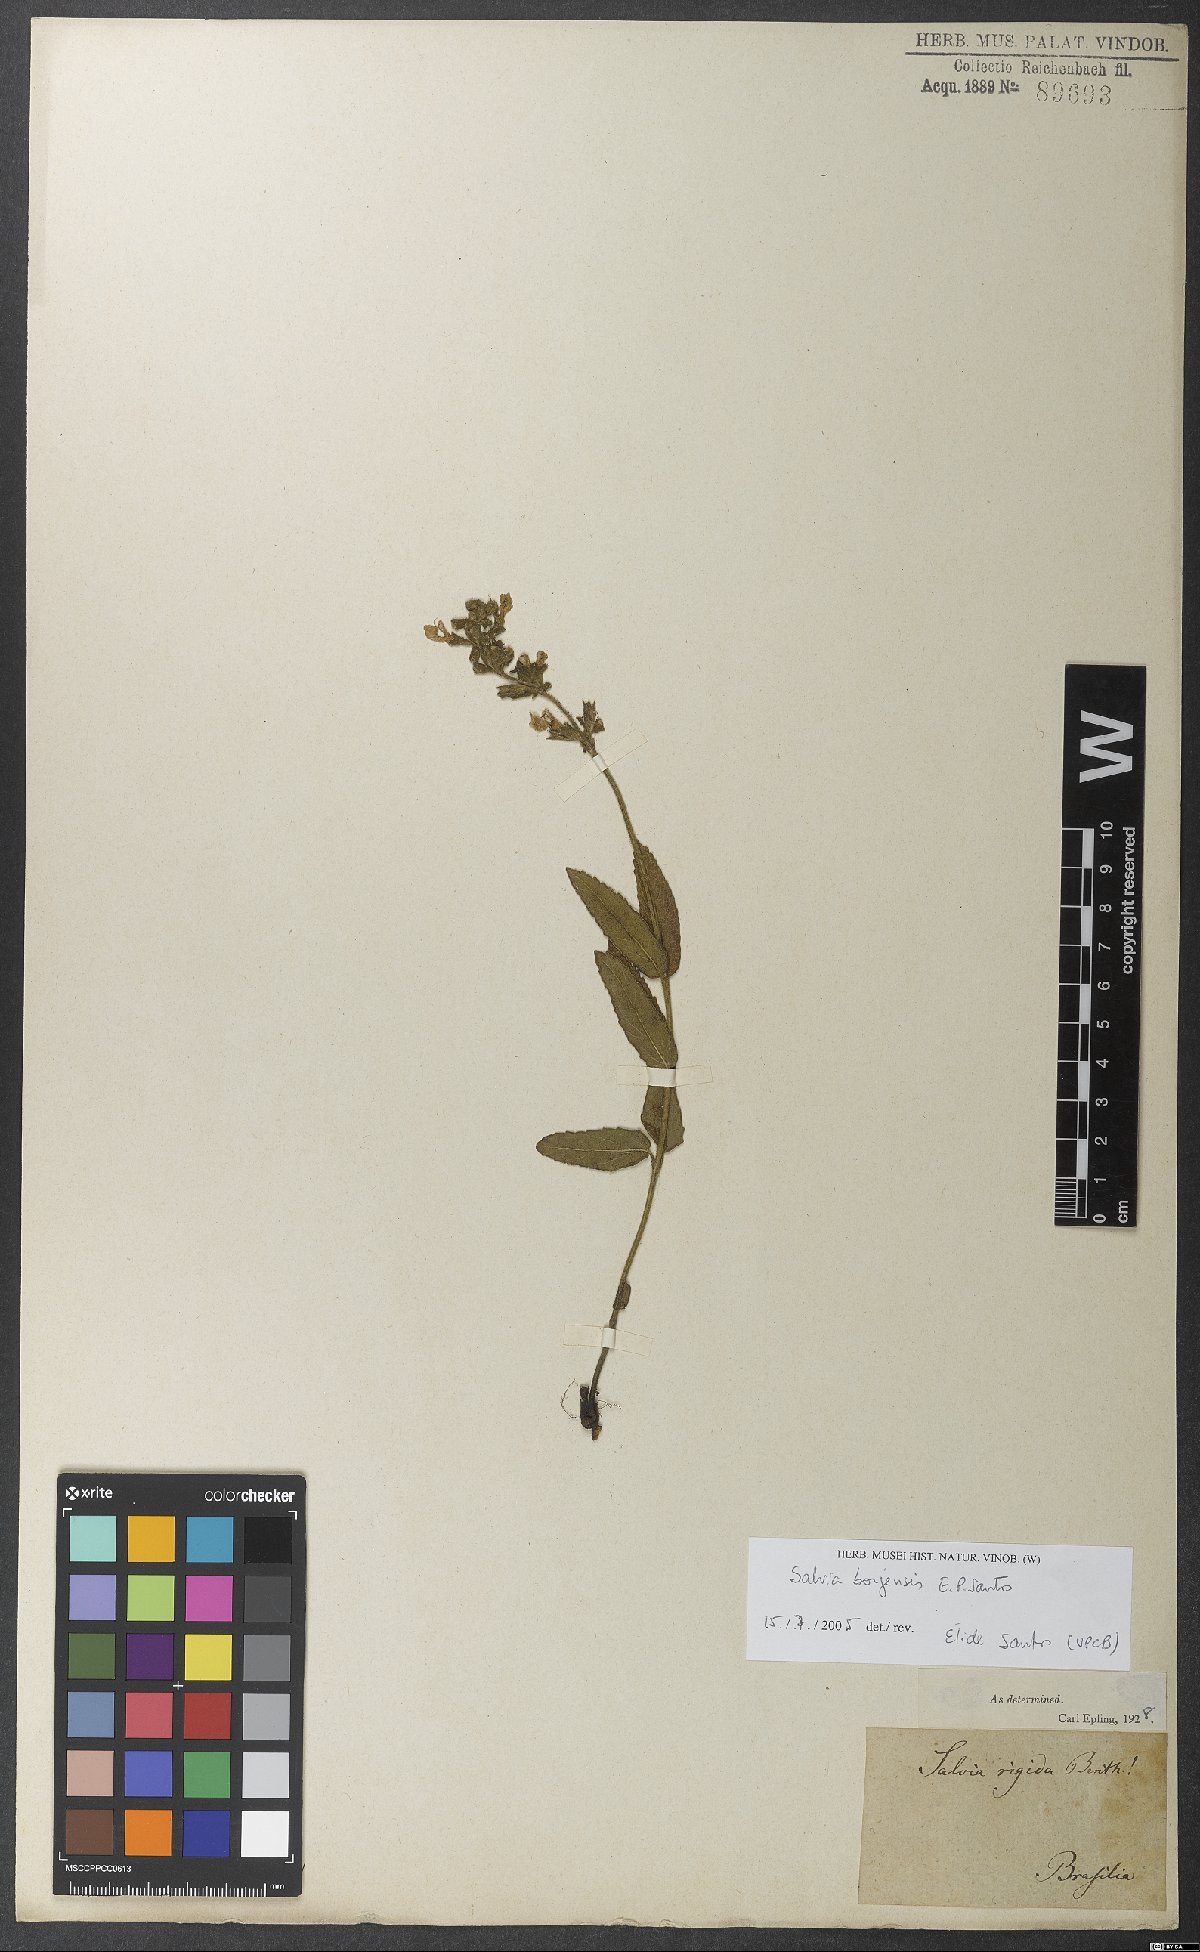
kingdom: Plantae
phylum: Tracheophyta
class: Magnoliopsida
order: Lamiales
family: Lamiaceae
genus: Salvia
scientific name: Salvia nervosa
